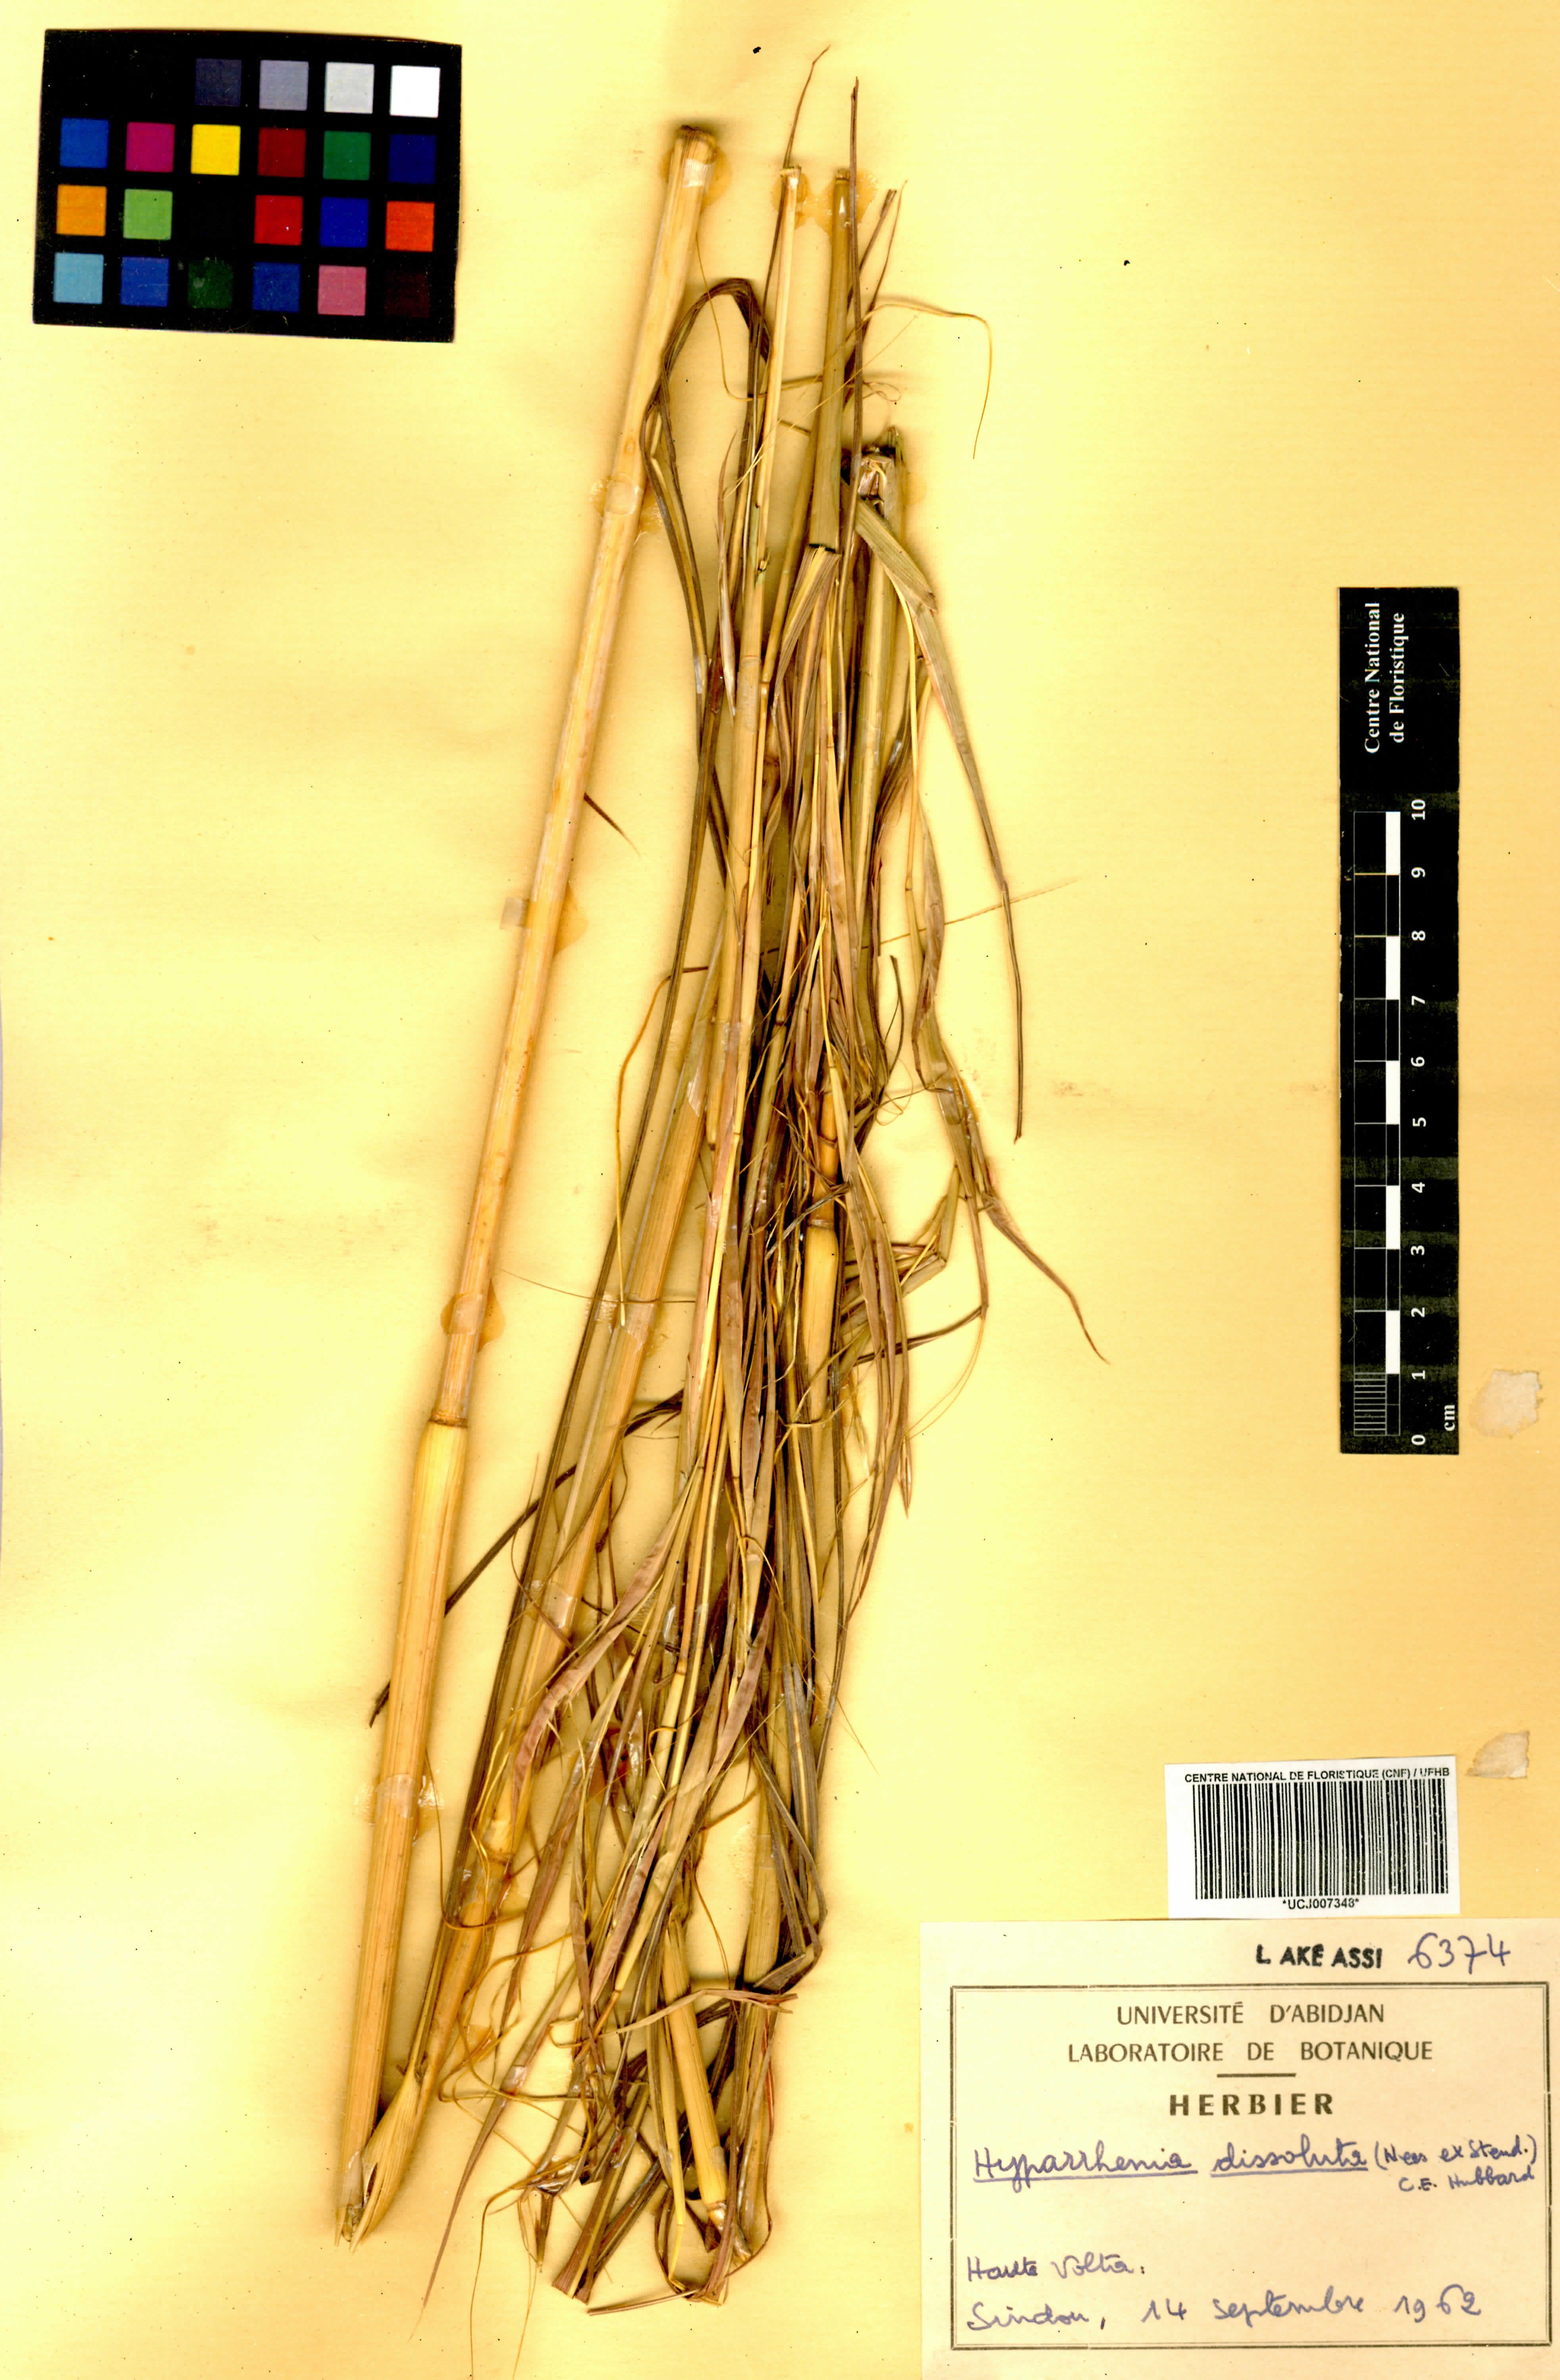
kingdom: Plantae
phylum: Tracheophyta
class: Liliopsida
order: Poales
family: Poaceae
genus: Hyperthelia
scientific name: Hyperthelia dissoluta
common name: Yellow thatching grass
